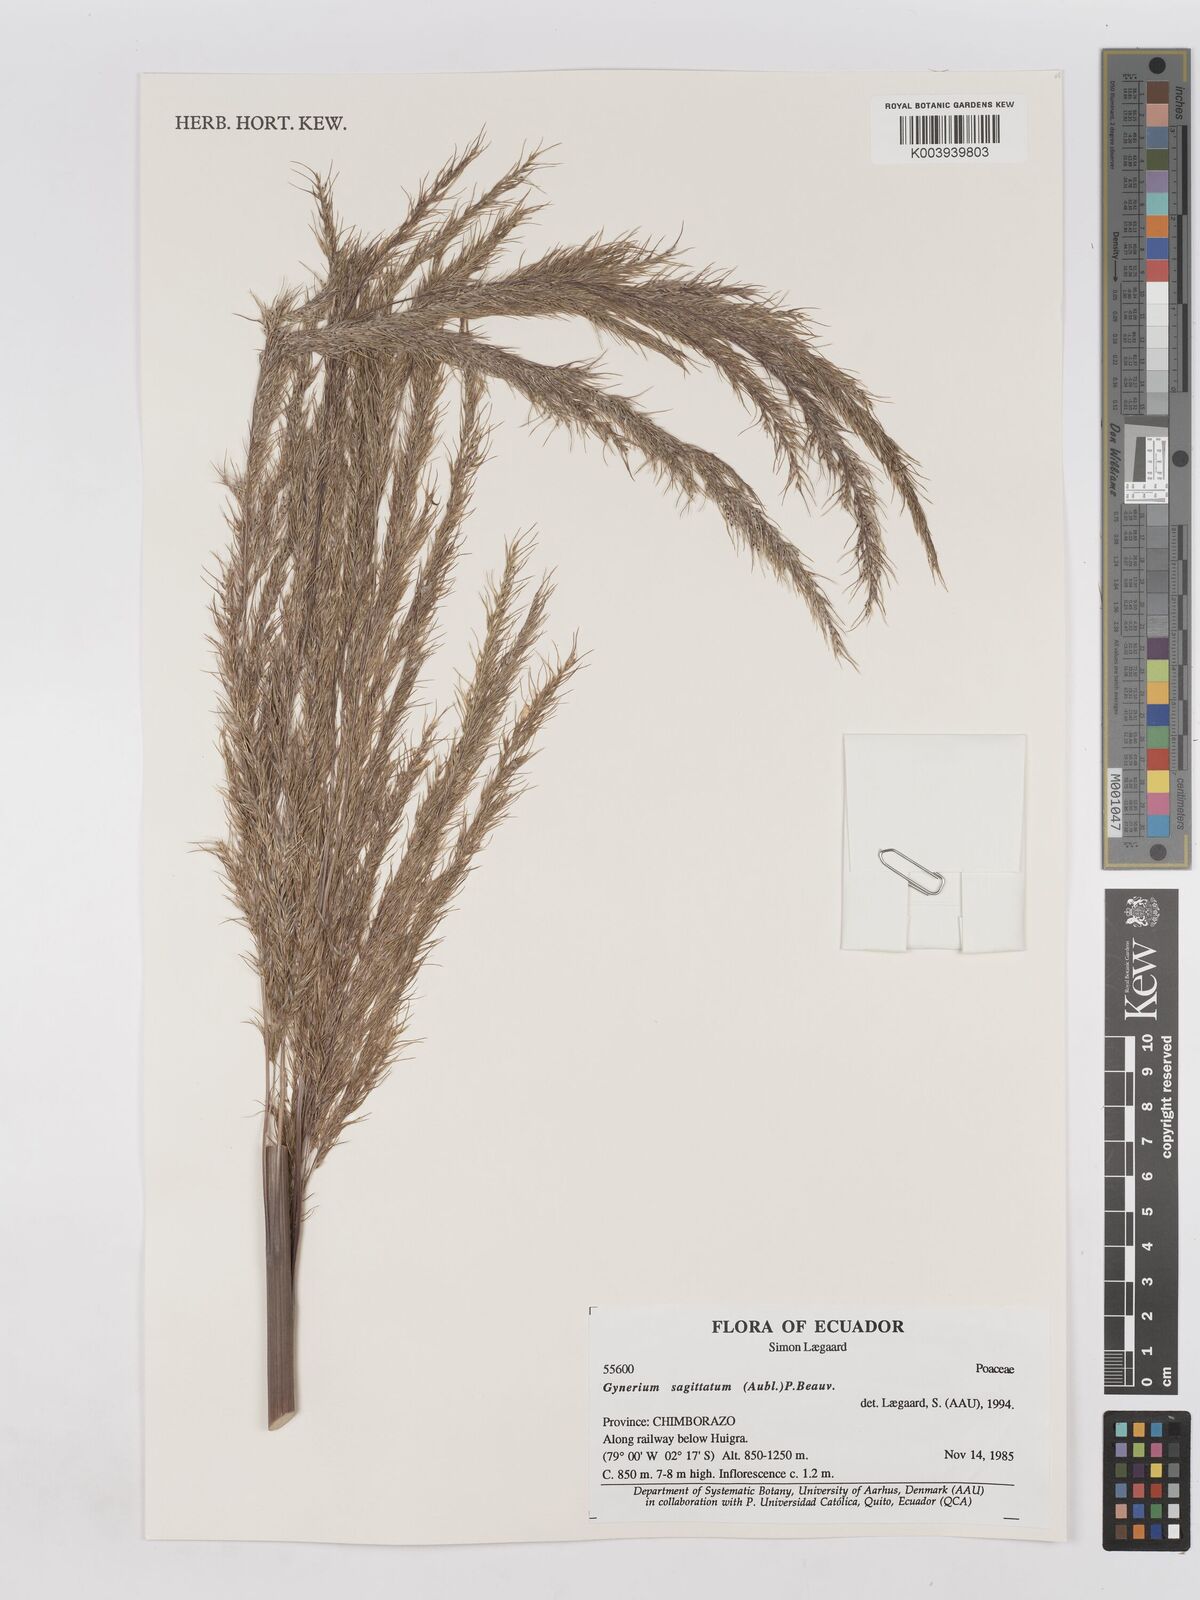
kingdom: Plantae
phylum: Tracheophyta
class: Liliopsida
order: Poales
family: Poaceae
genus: Gynerium
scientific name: Gynerium sagittatum
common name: Wild cane
